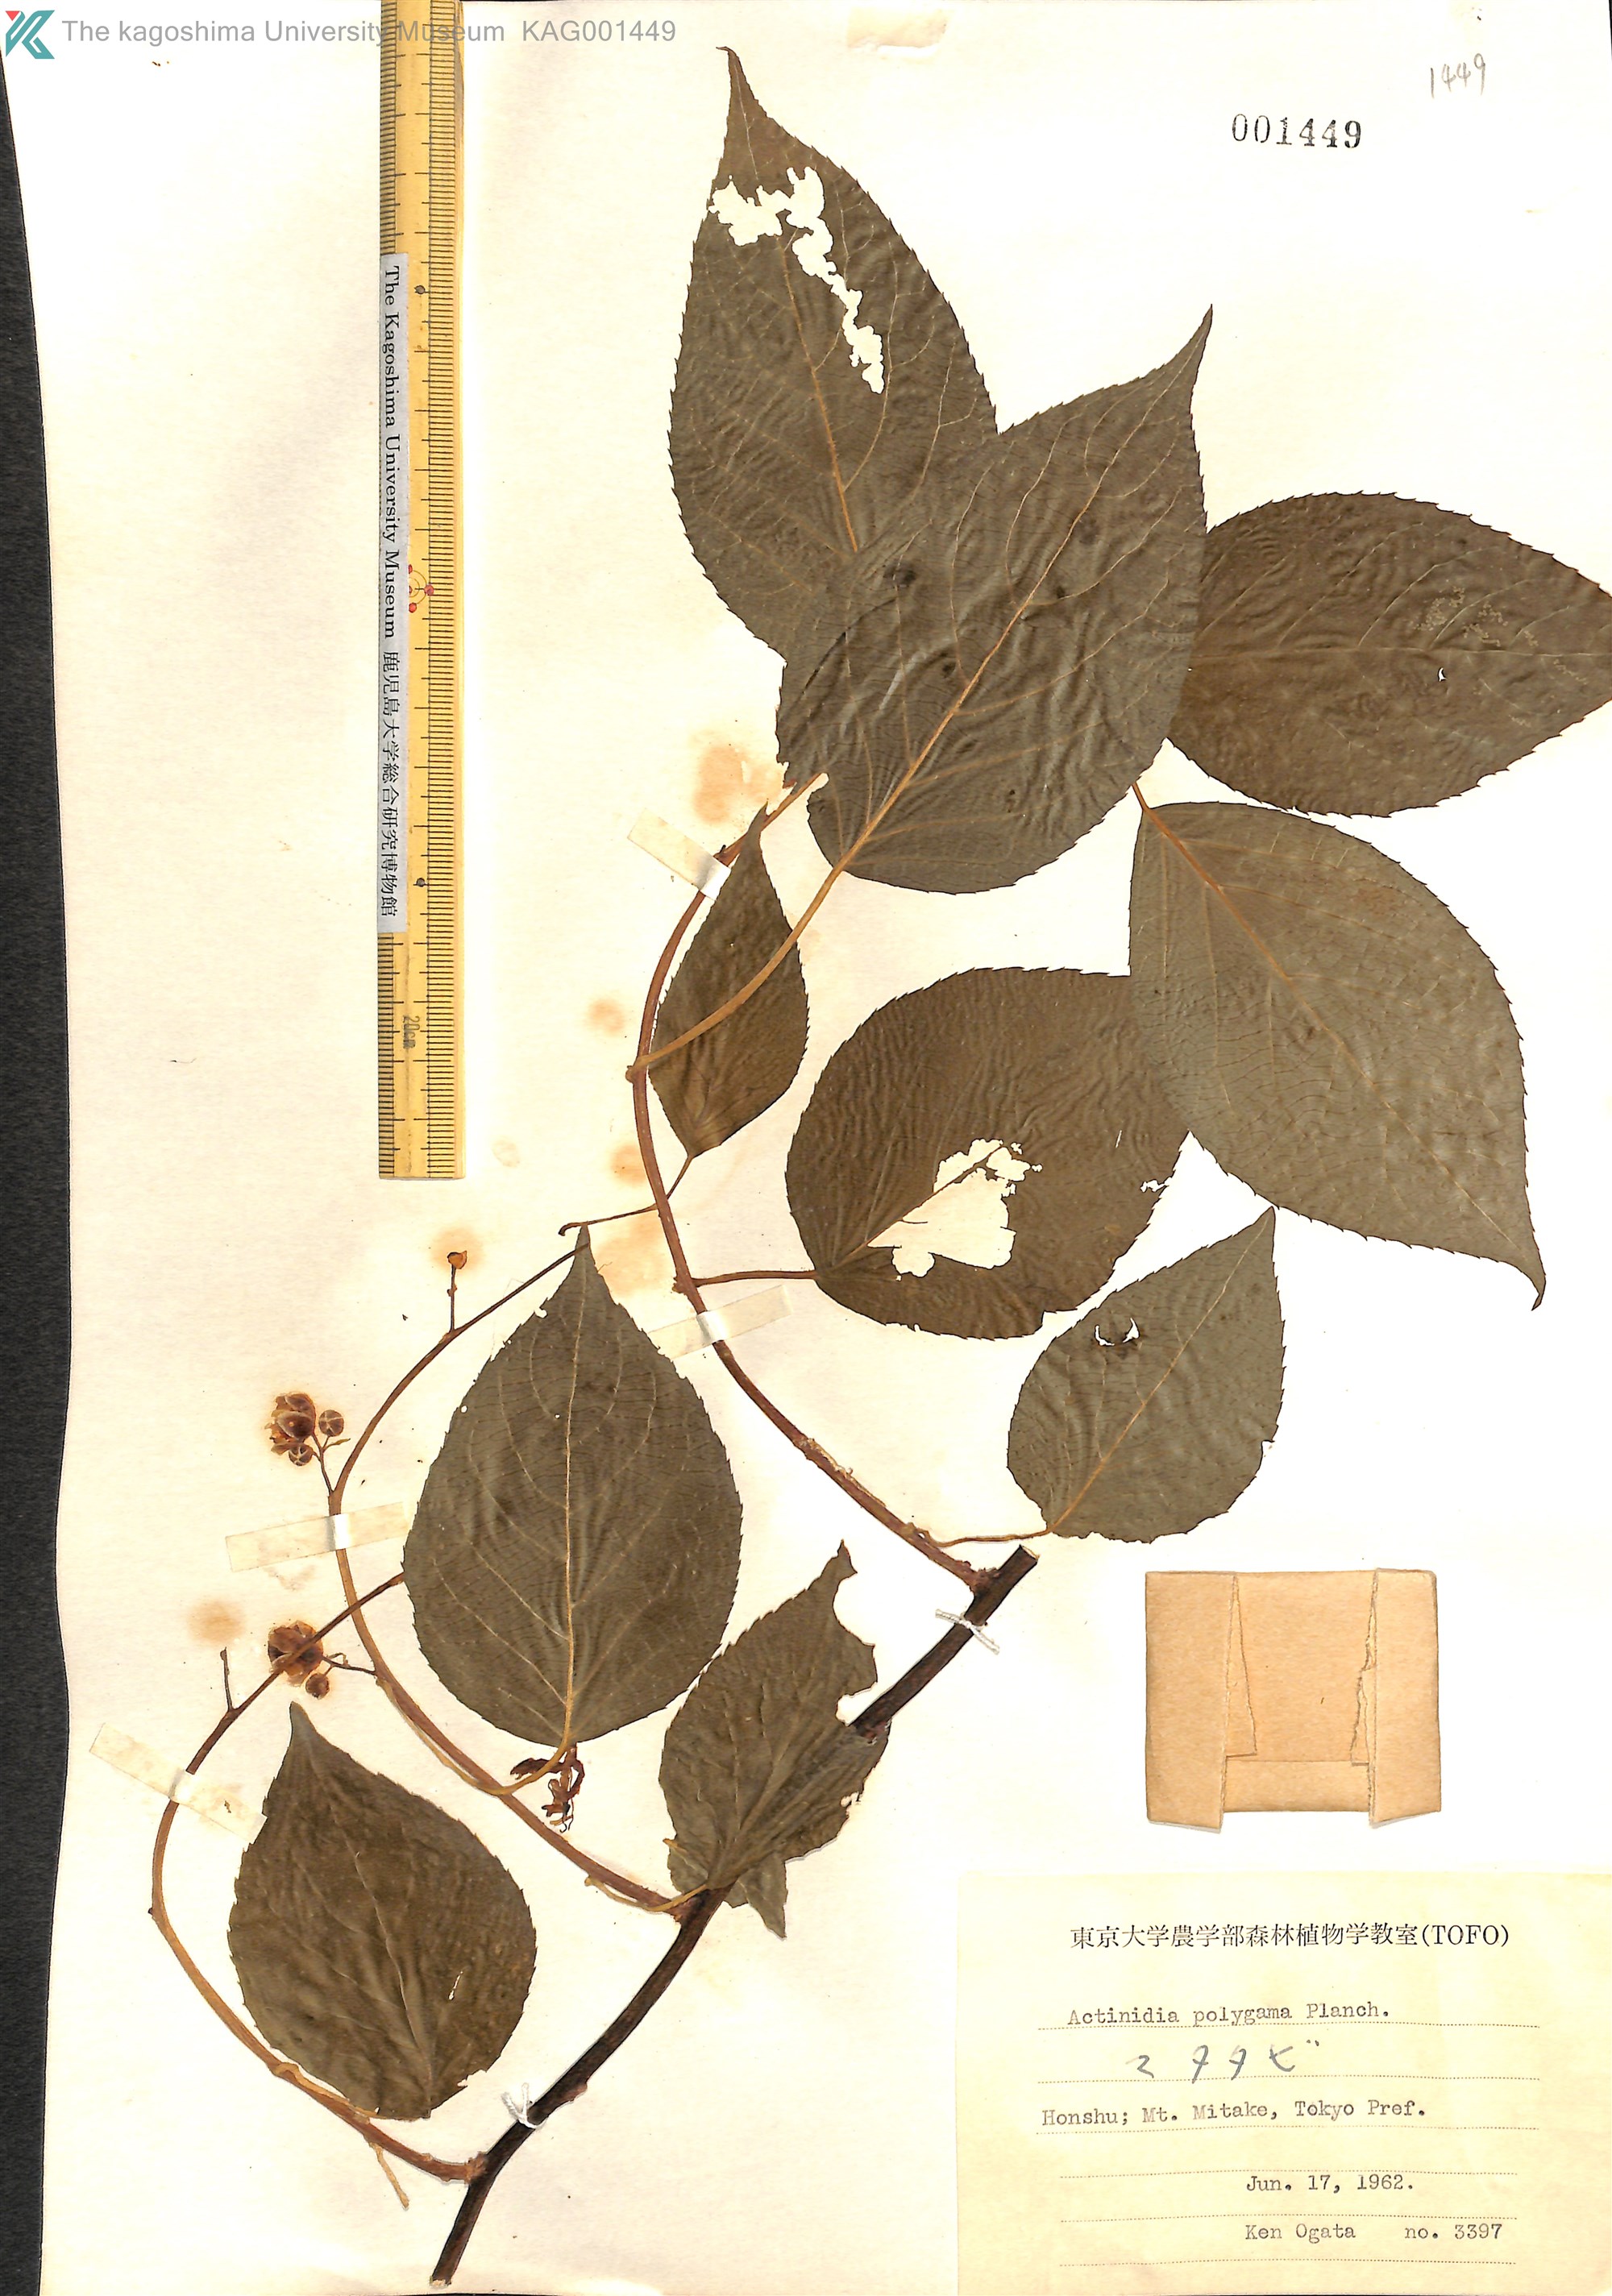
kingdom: Plantae
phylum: Tracheophyta
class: Magnoliopsida
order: Ericales
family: Actinidiaceae
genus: Actinidia
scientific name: Actinidia polygama
